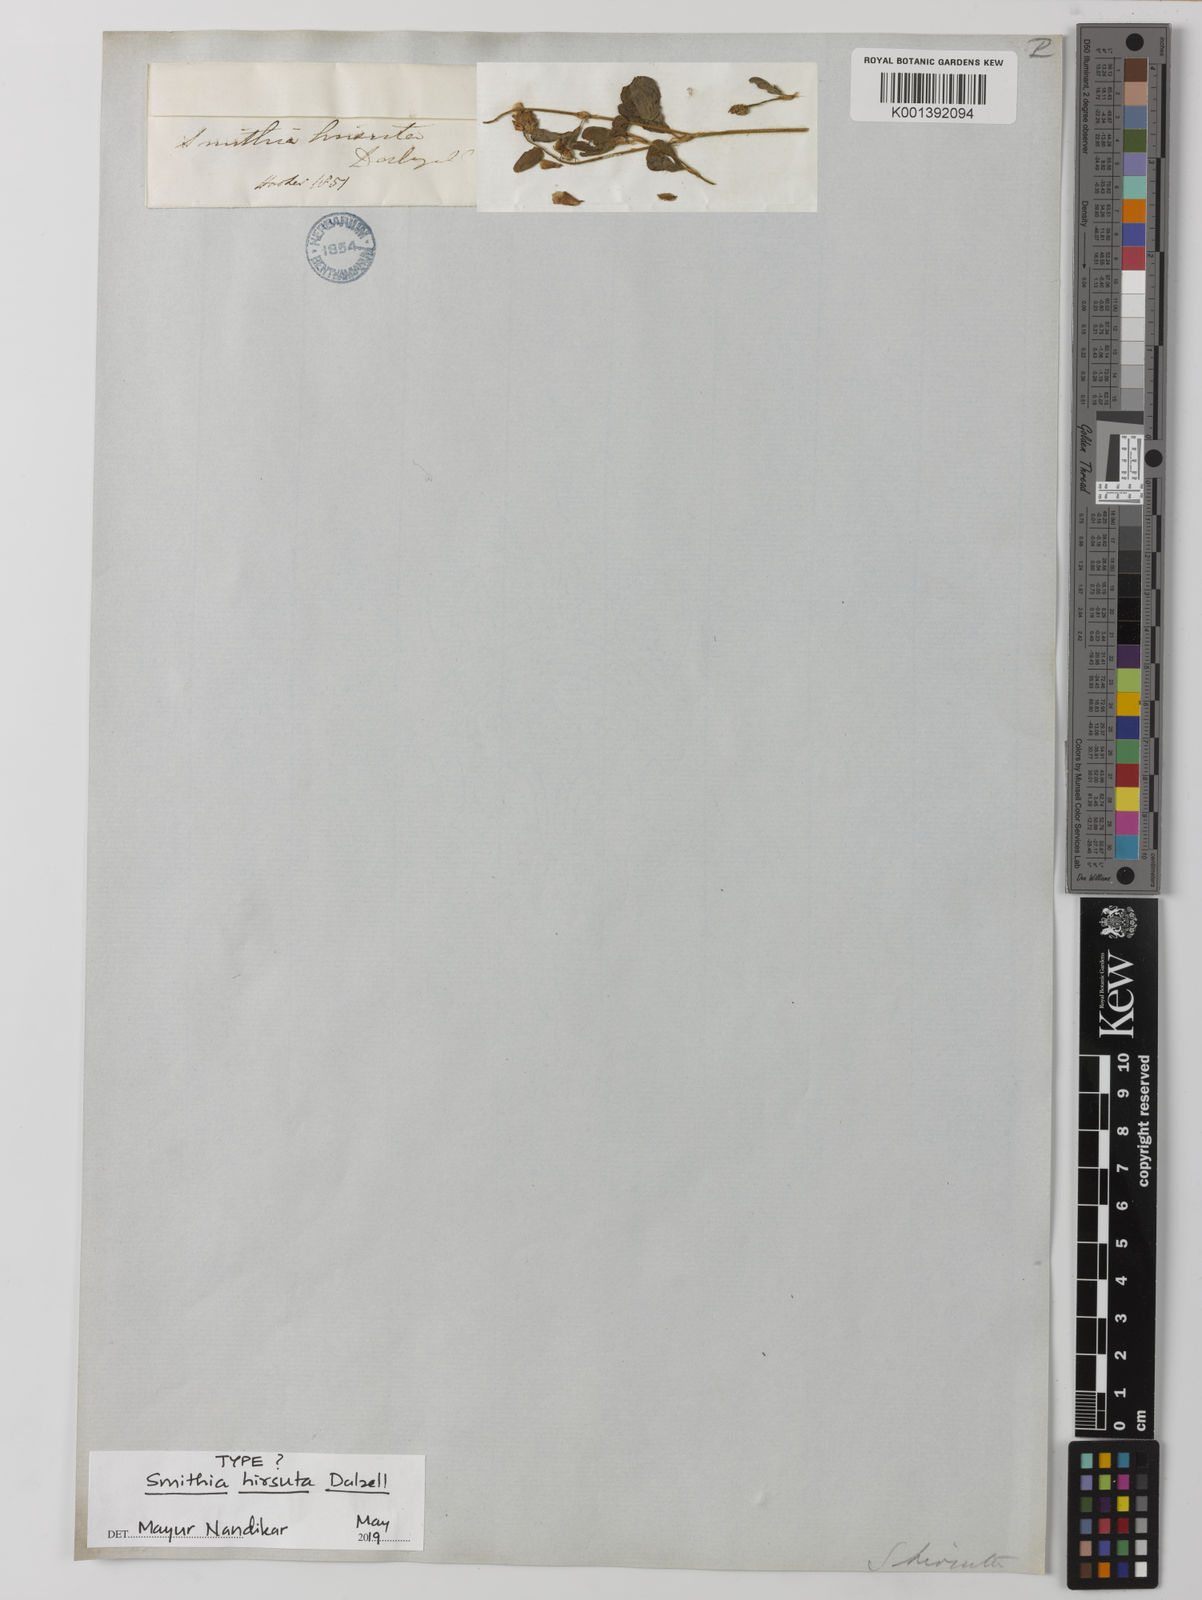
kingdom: Plantae
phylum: Tracheophyta
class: Magnoliopsida
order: Fabales
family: Fabaceae
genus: Smithia
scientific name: Smithia hirsuta
